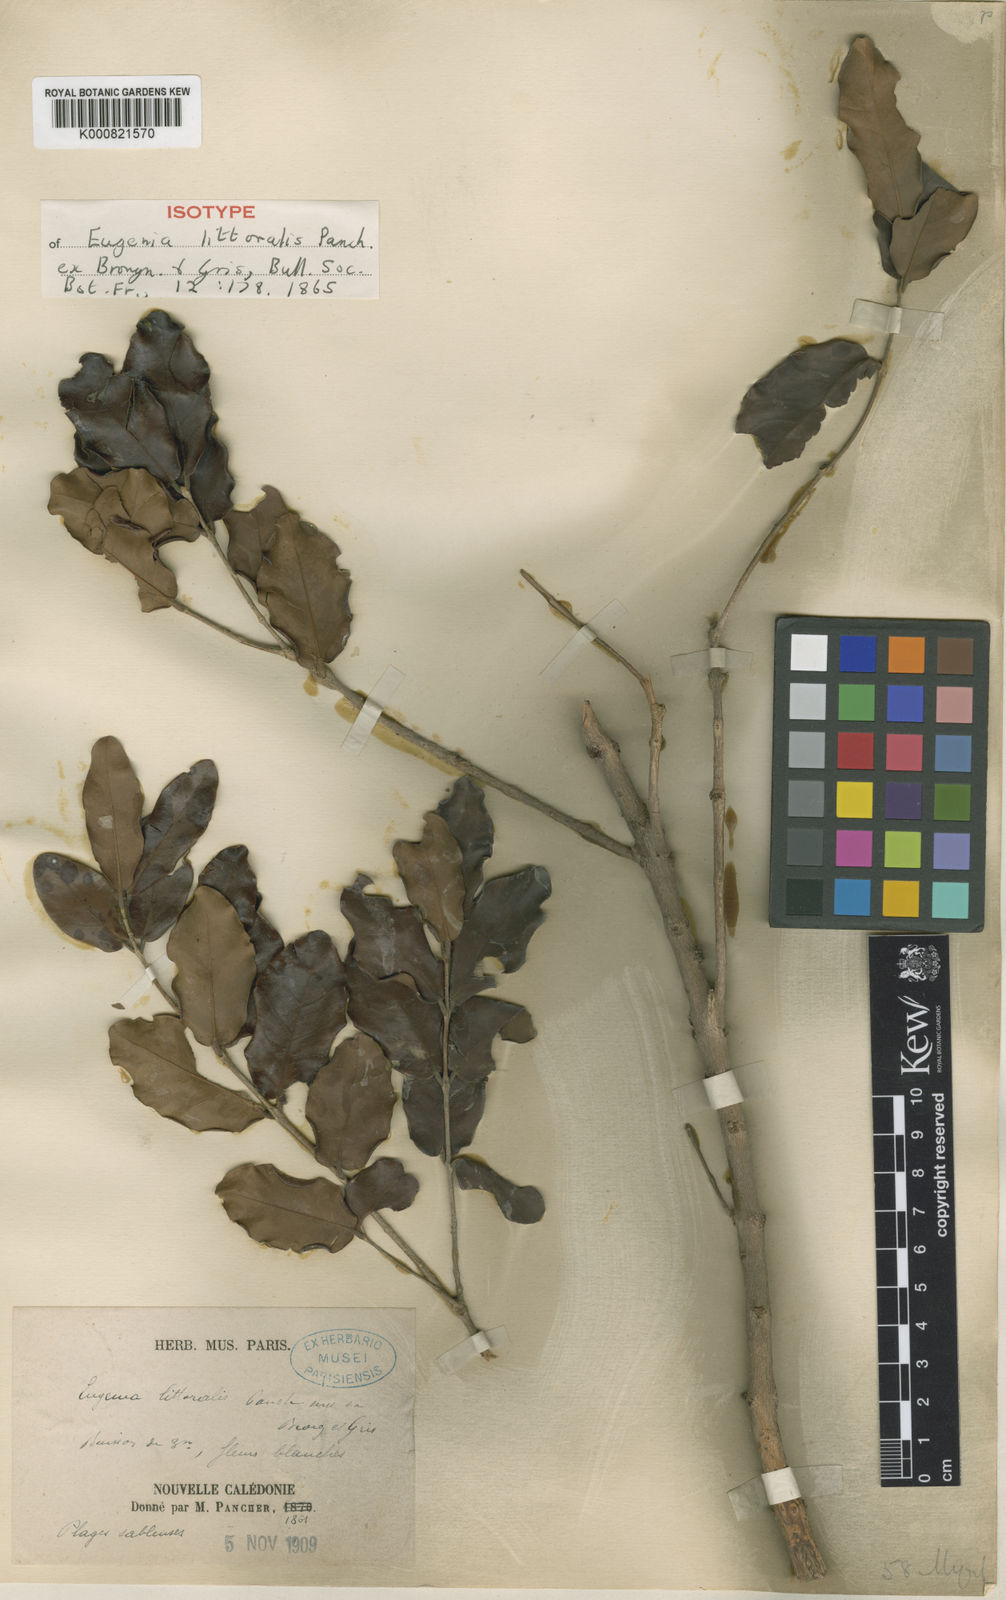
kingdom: Plantae
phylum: Tracheophyta
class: Magnoliopsida
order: Myrtales
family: Myrtaceae
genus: Eugenia
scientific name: Eugenia littoralis
